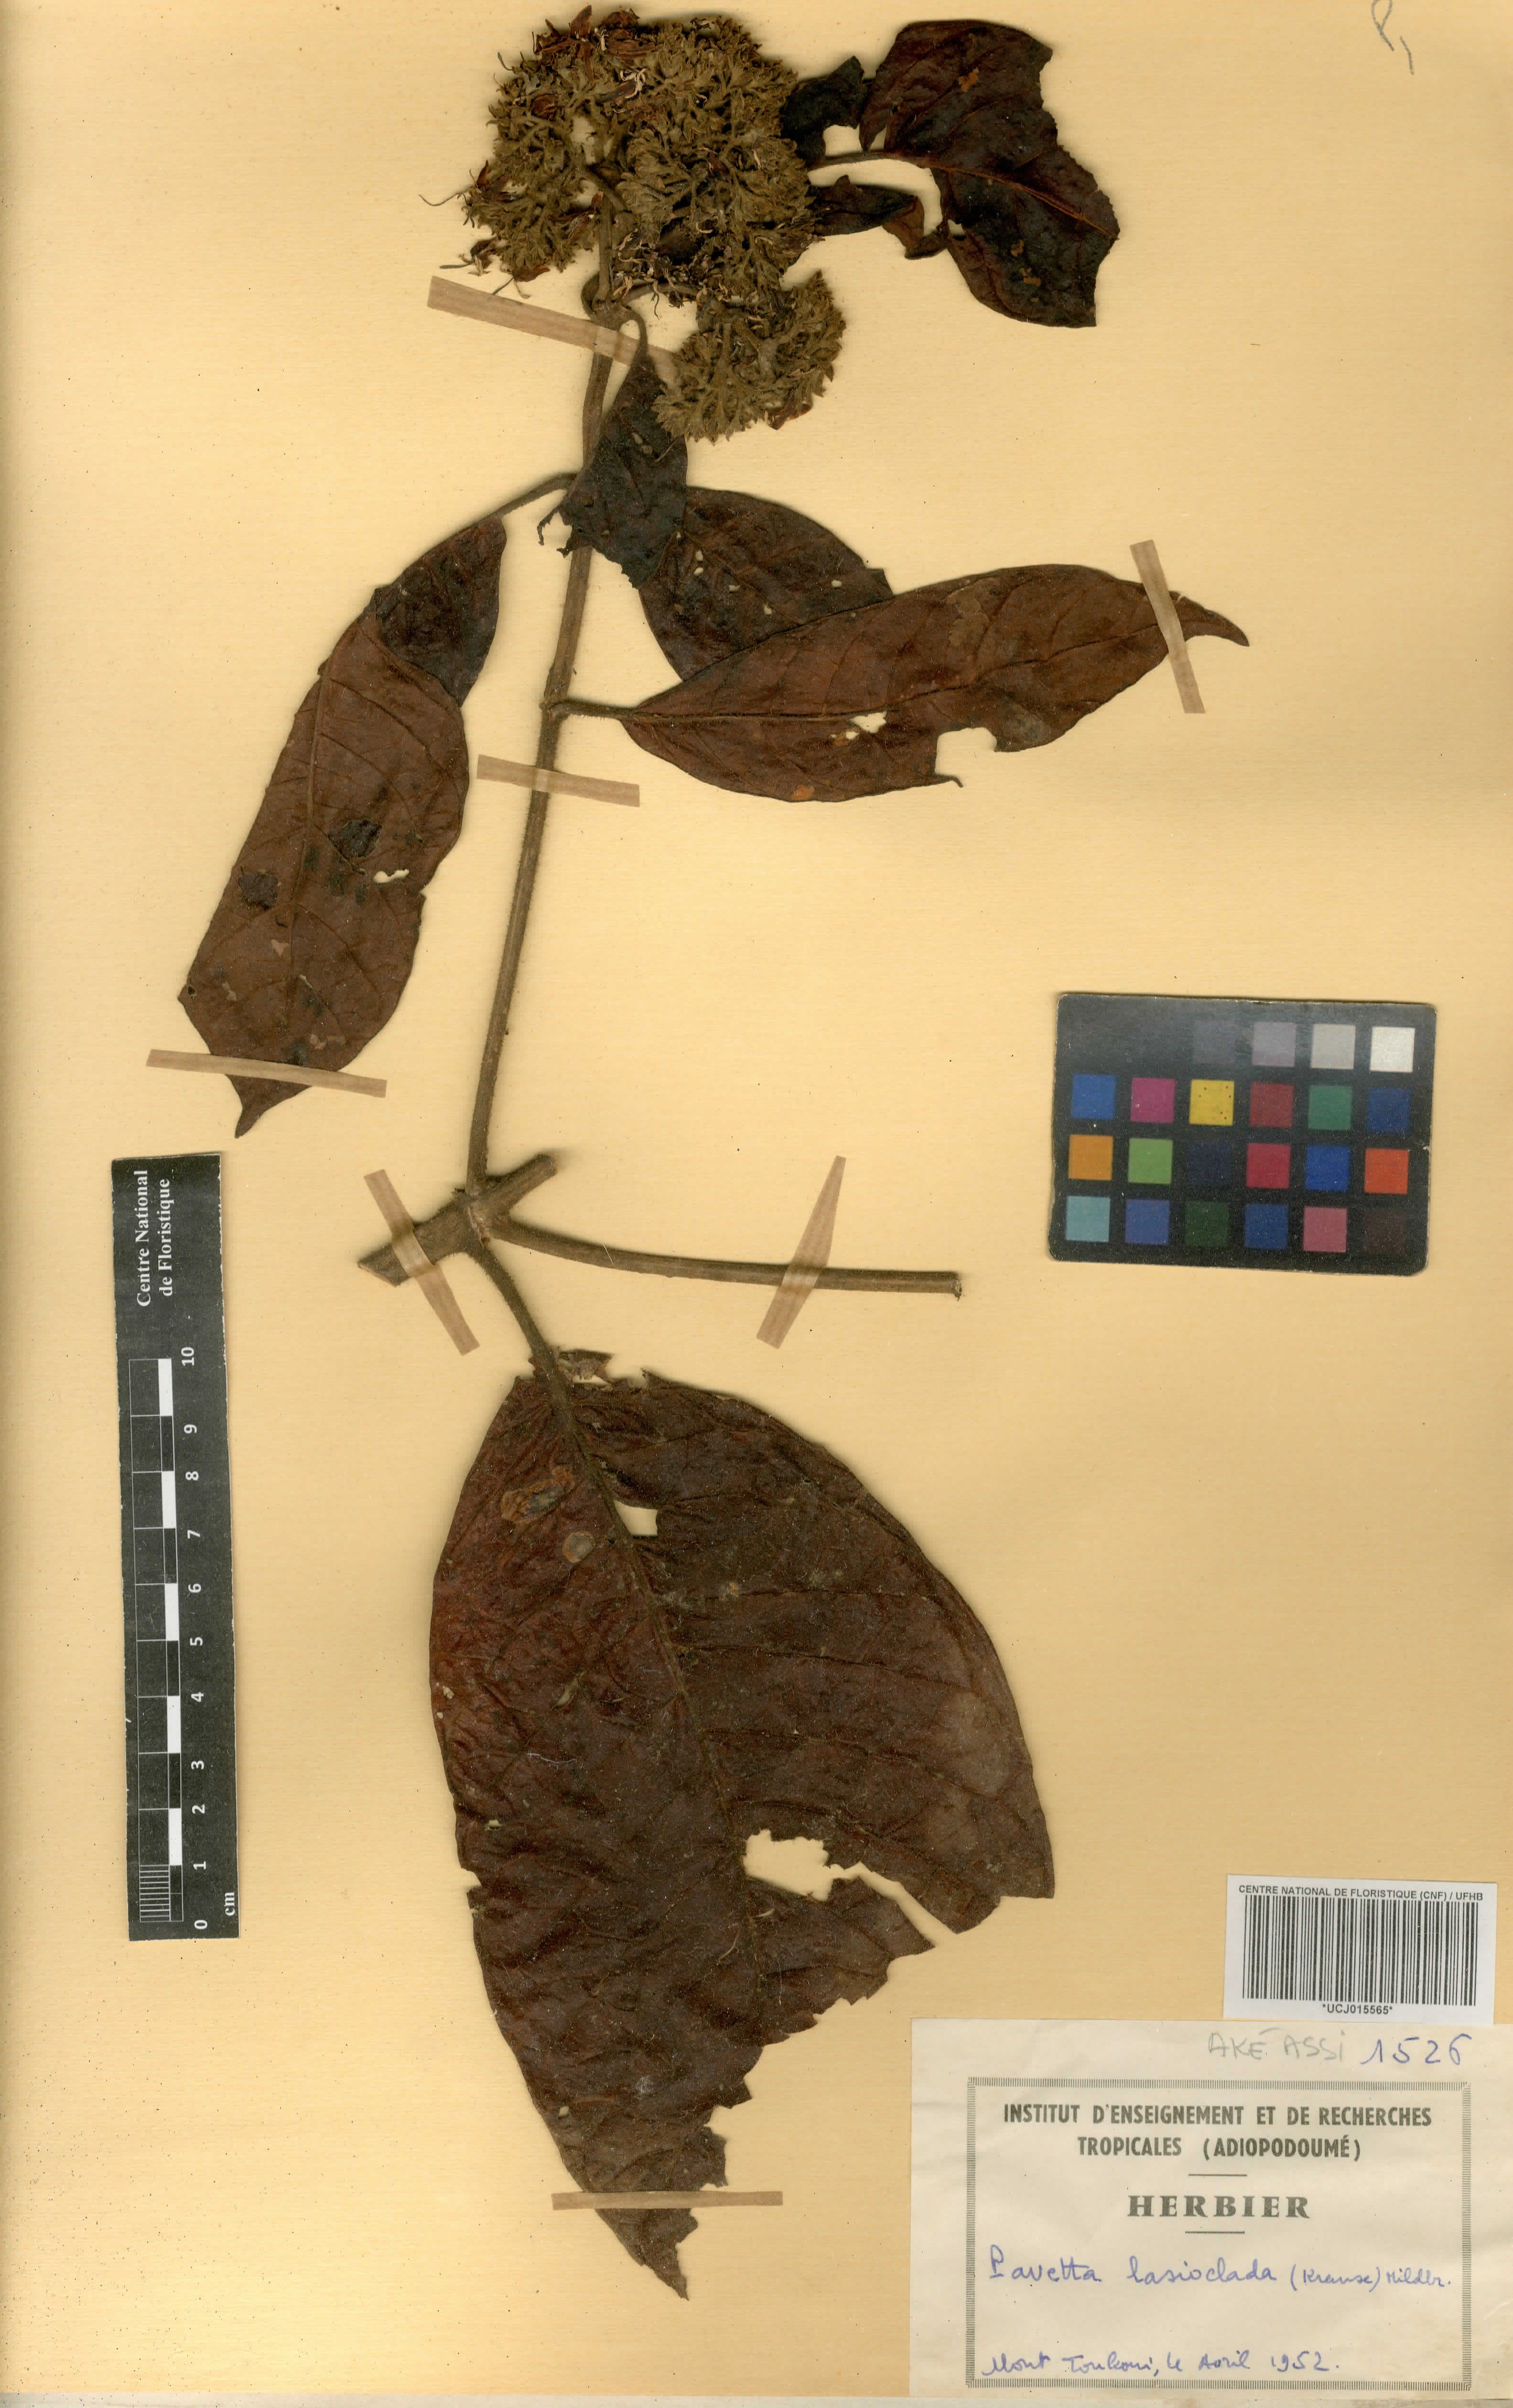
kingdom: Plantae
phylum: Tracheophyta
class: Magnoliopsida
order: Gentianales
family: Rubiaceae
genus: Pavetta
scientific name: Pavetta lasioclada
